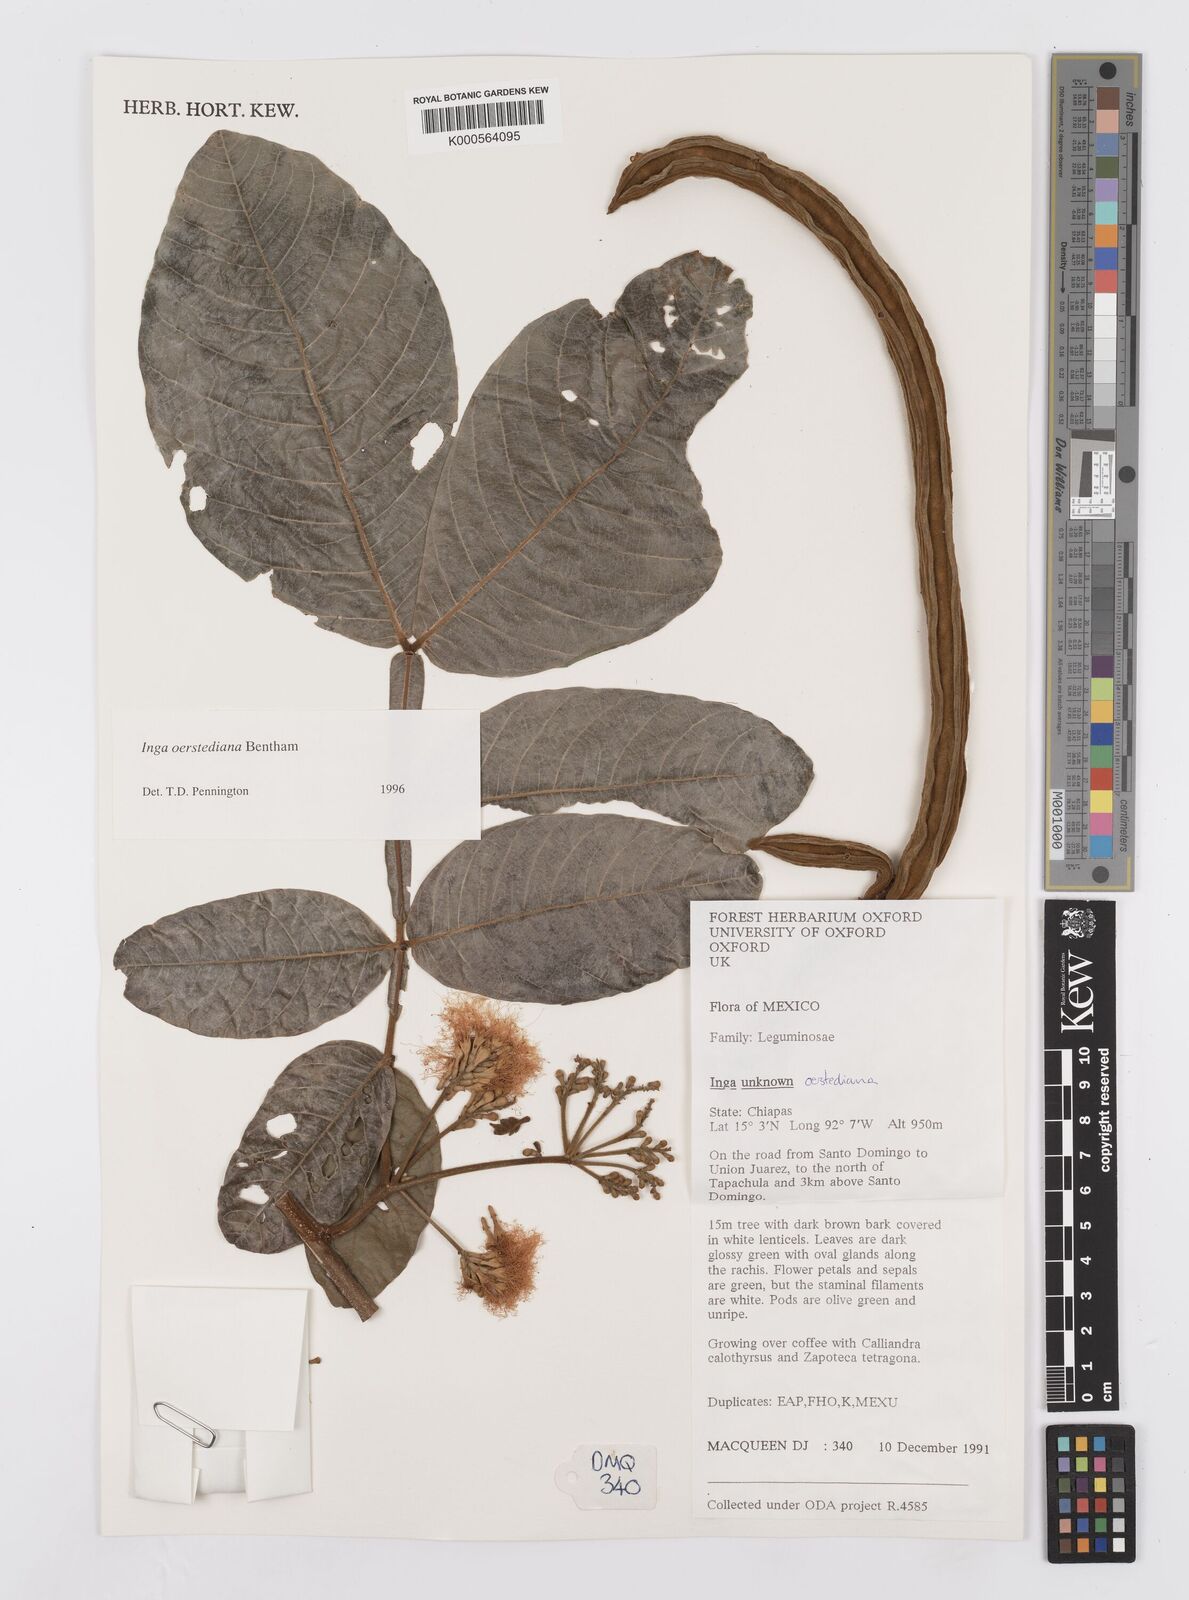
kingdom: Plantae
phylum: Tracheophyta
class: Magnoliopsida
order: Fabales
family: Fabaceae
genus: Inga
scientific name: Inga oerstediana
